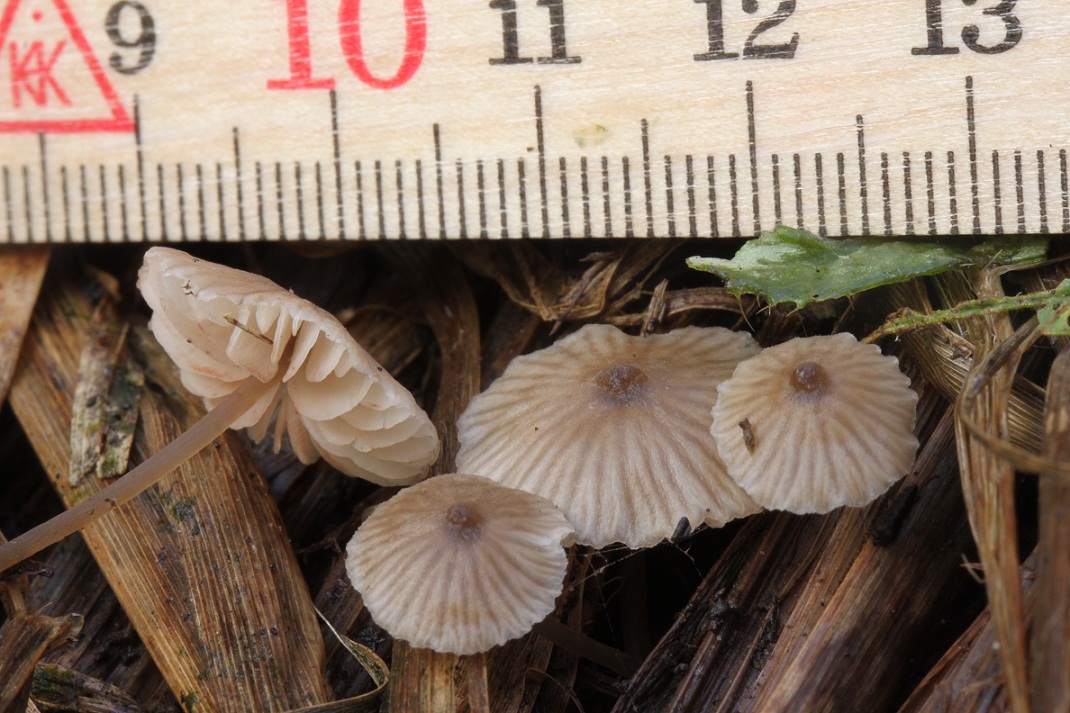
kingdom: Fungi
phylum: Basidiomycota
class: Agaricomycetes
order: Agaricales
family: Entolomataceae
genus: Entoloma
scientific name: Entoloma pygmaeopapillatum
